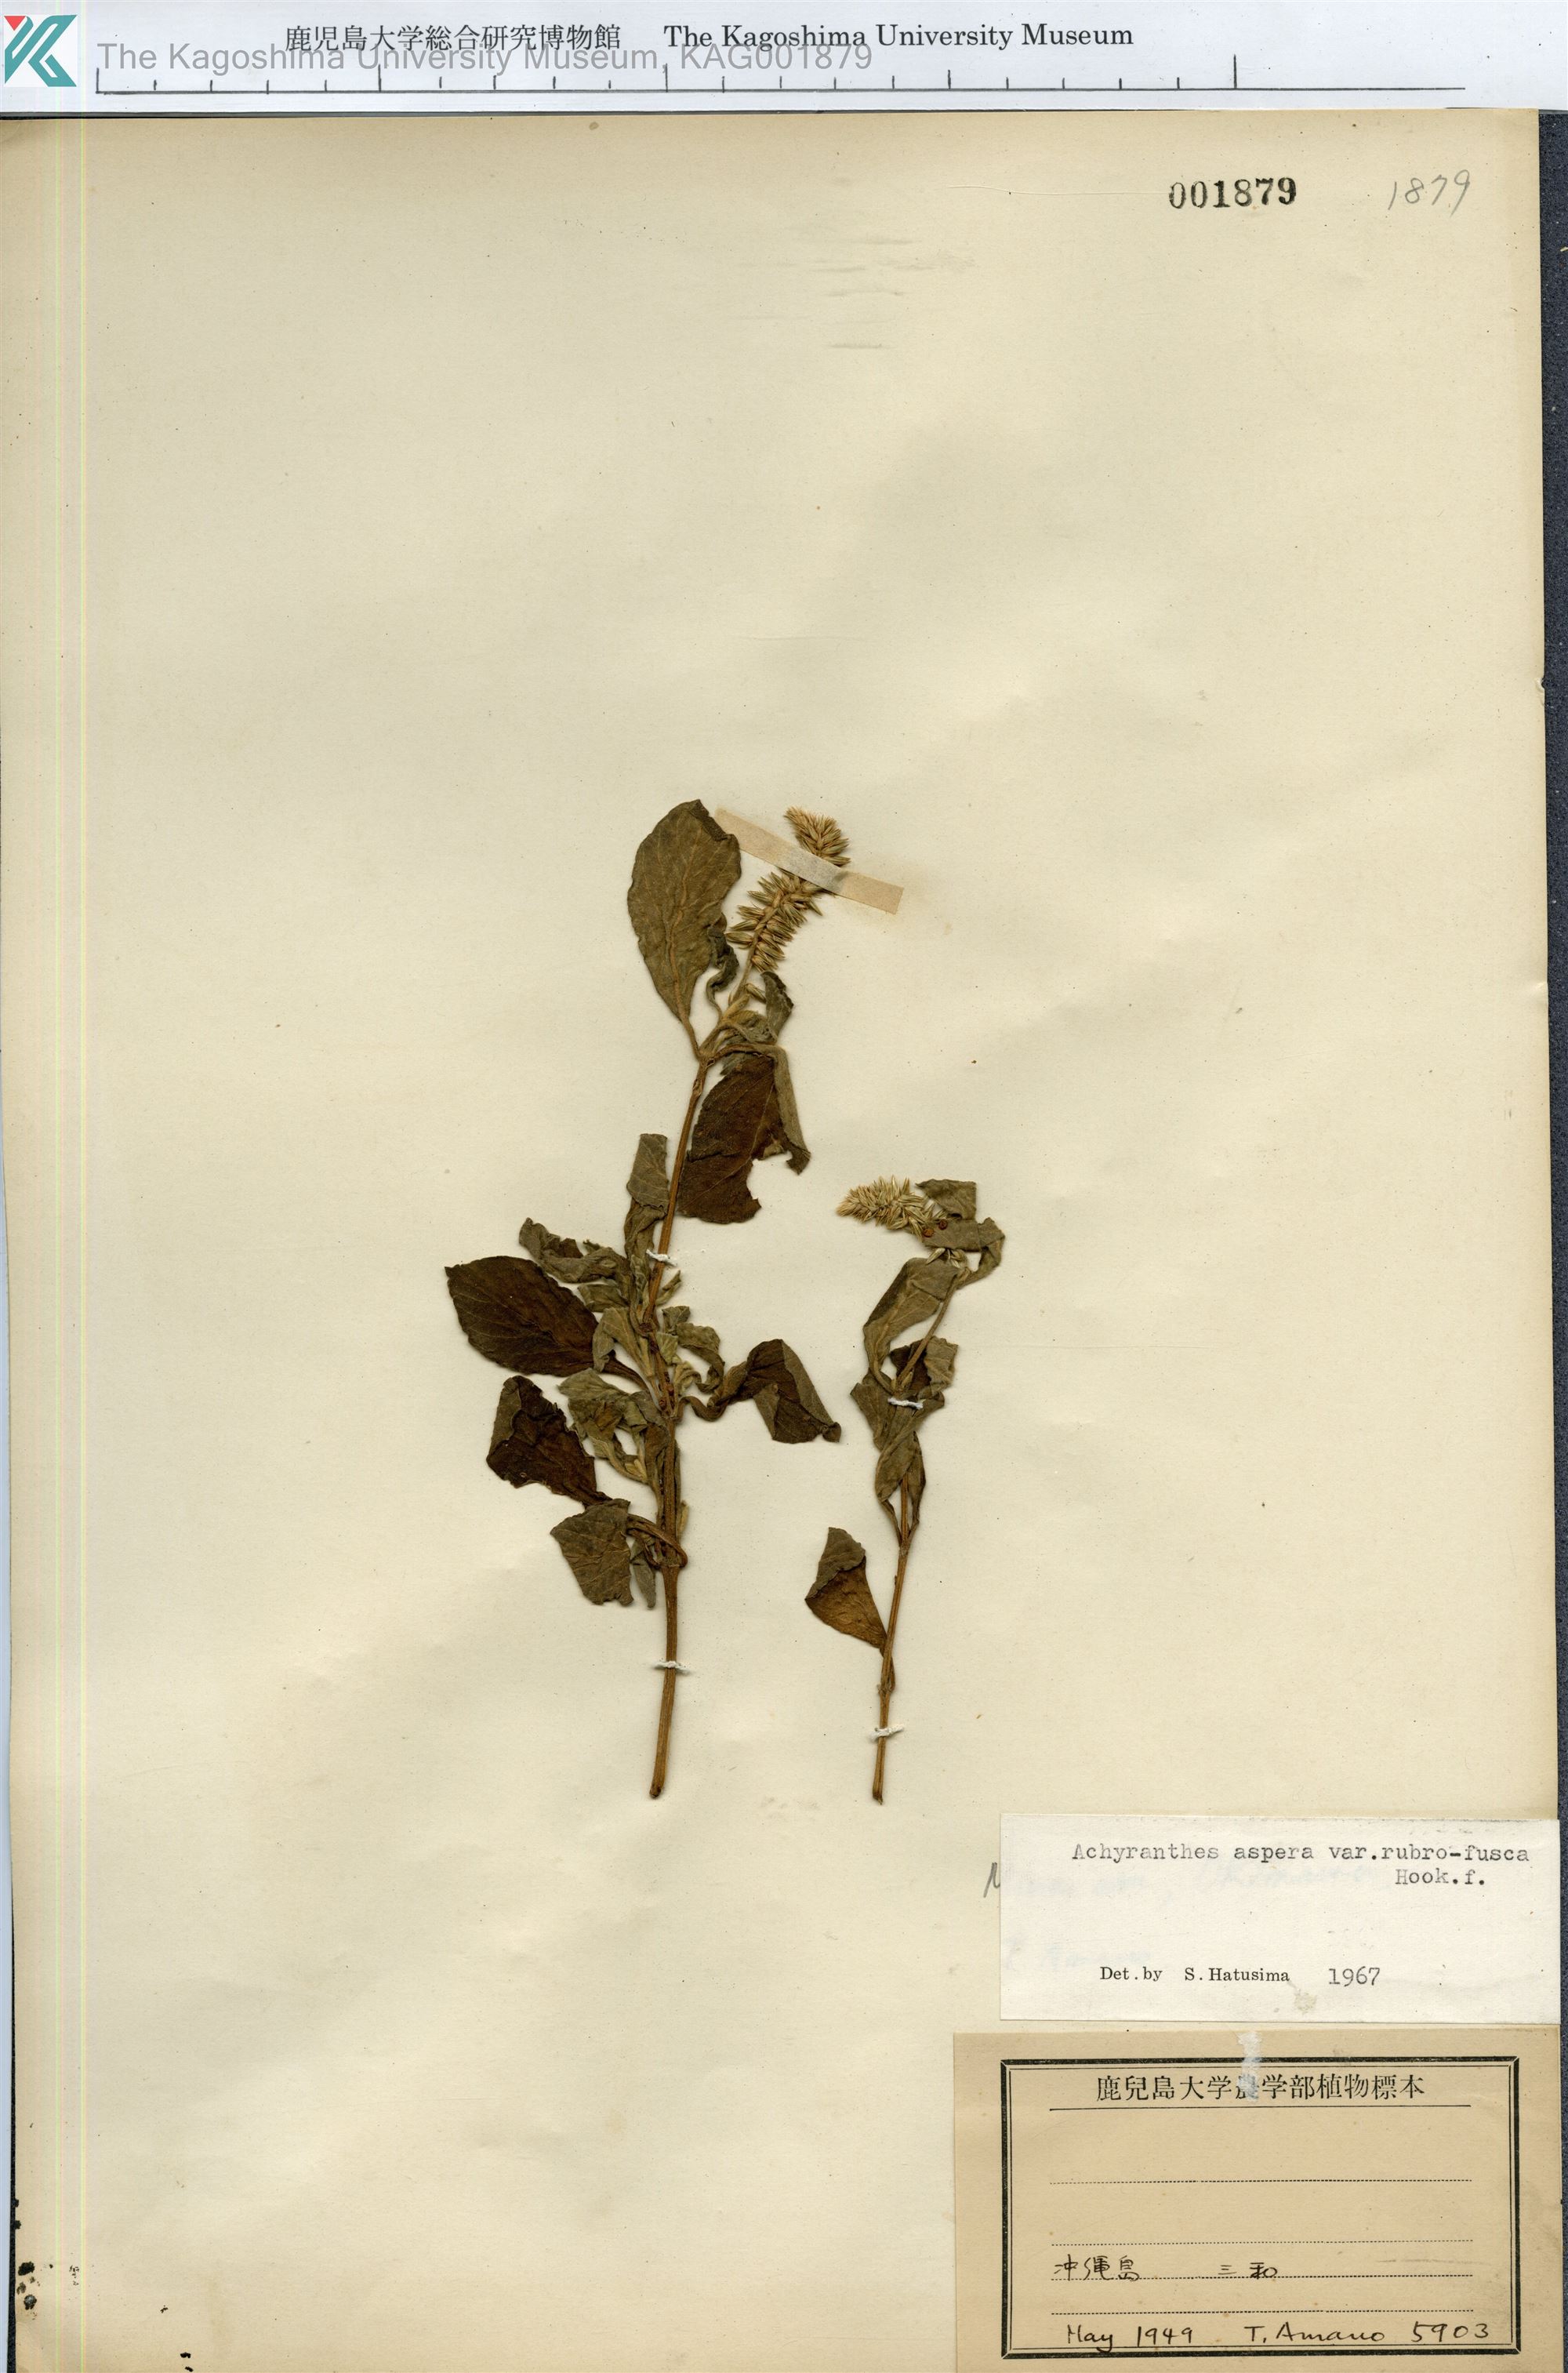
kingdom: Plantae
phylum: Tracheophyta
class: Magnoliopsida
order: Caryophyllales
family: Amaranthaceae
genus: Achyranthes
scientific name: Achyranthes aspera
